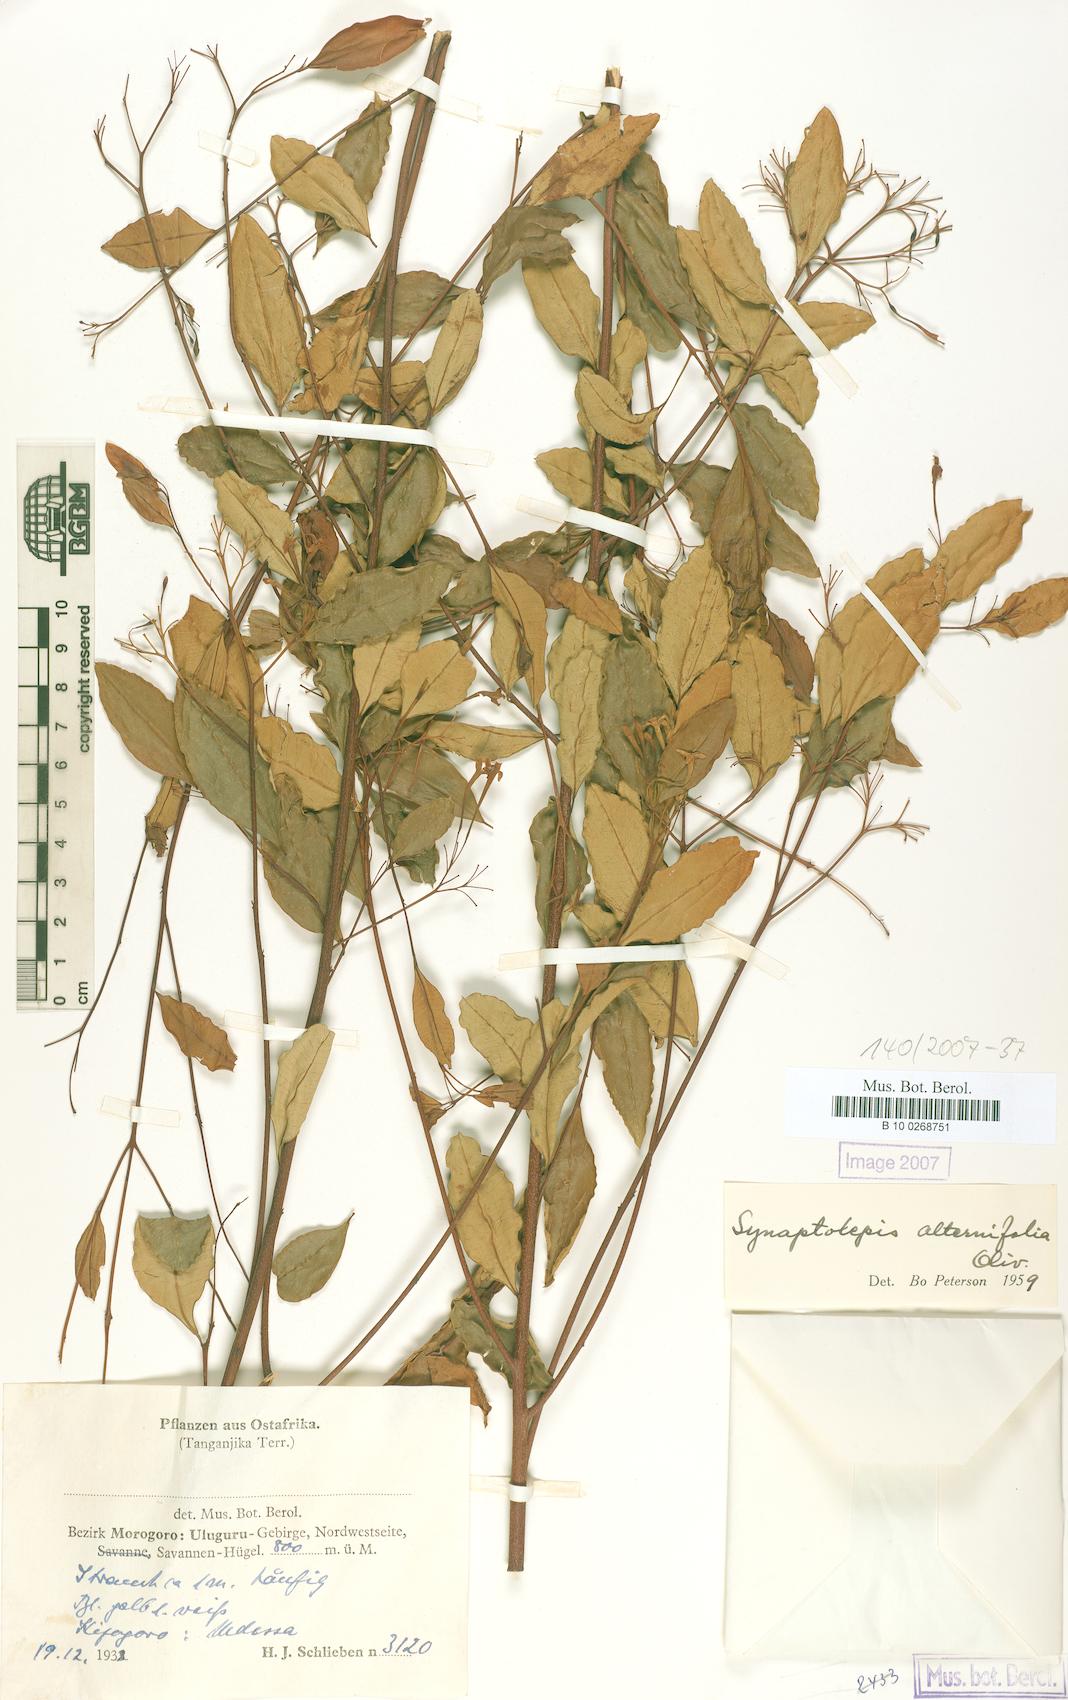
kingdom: Plantae
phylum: Tracheophyta
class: Magnoliopsida
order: Malvales
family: Thymelaeaceae
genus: Synaptolepis
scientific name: Synaptolepis alternifolia
